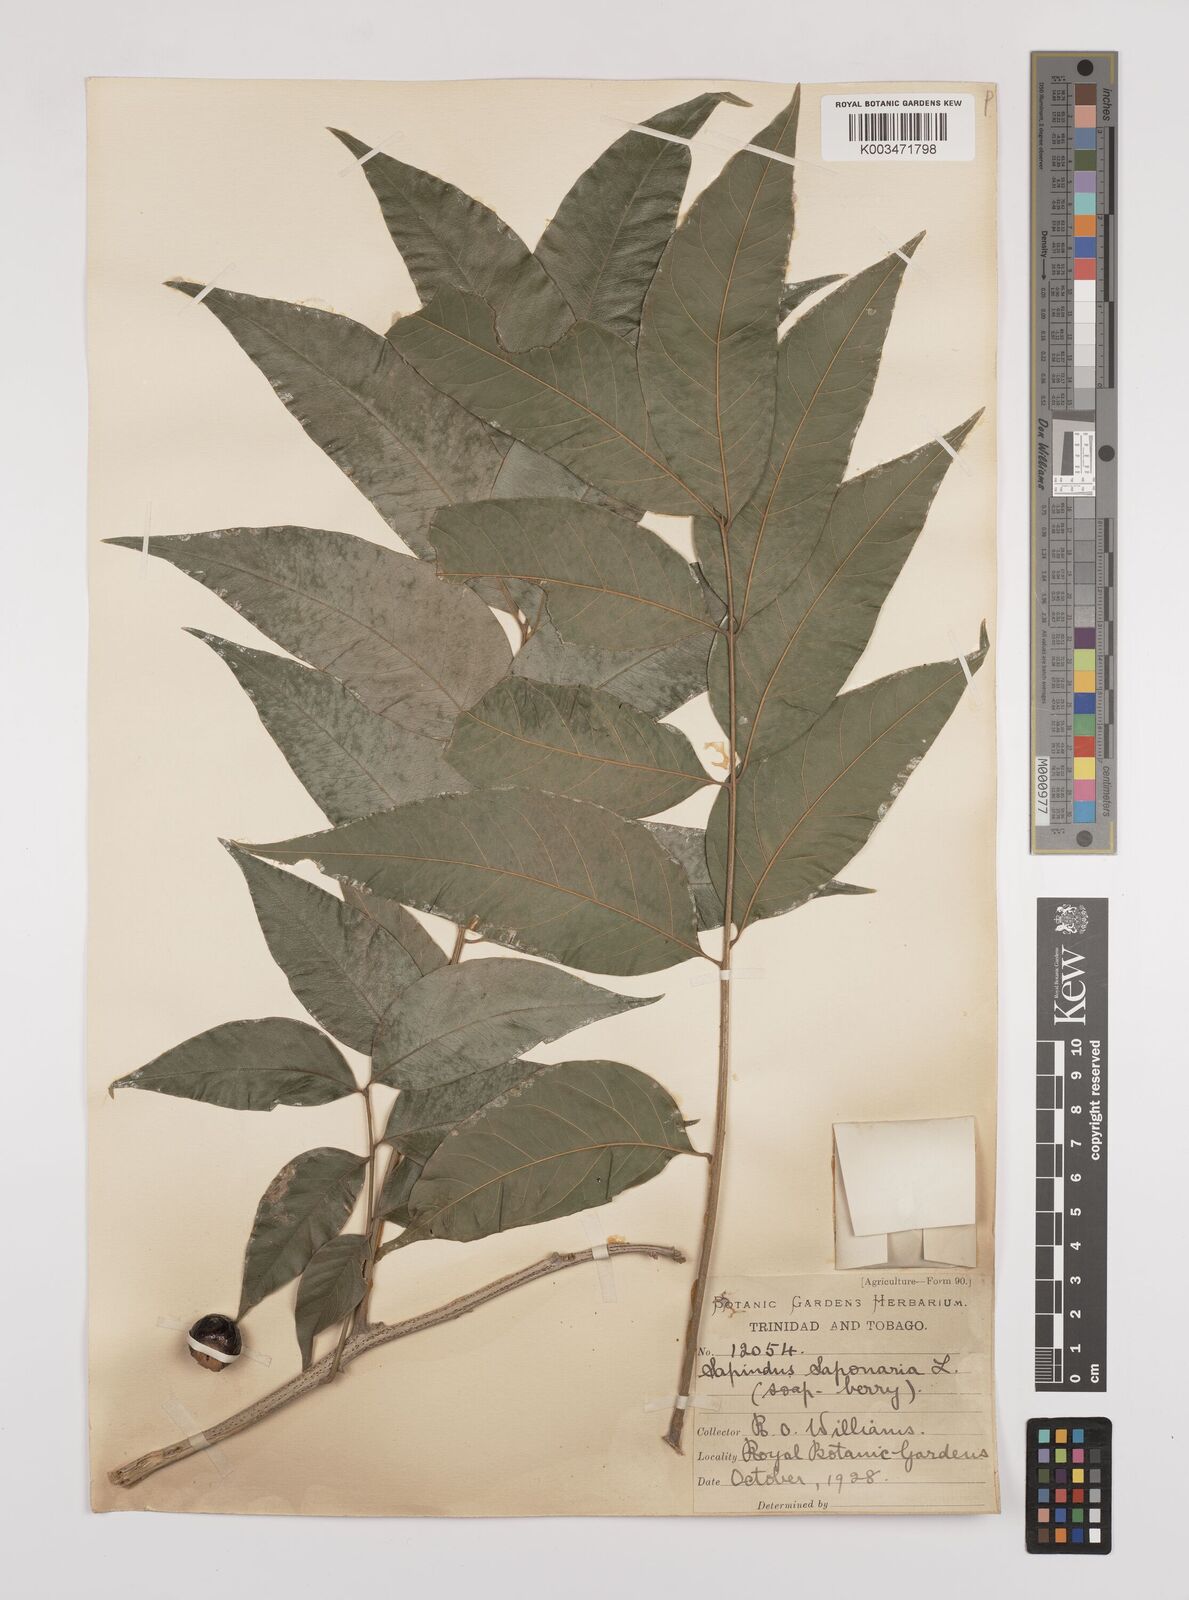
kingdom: Plantae
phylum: Tracheophyta
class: Magnoliopsida
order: Sapindales
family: Sapindaceae
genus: Sapindus
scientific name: Sapindus saponaria
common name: Wingleaf soapberry
